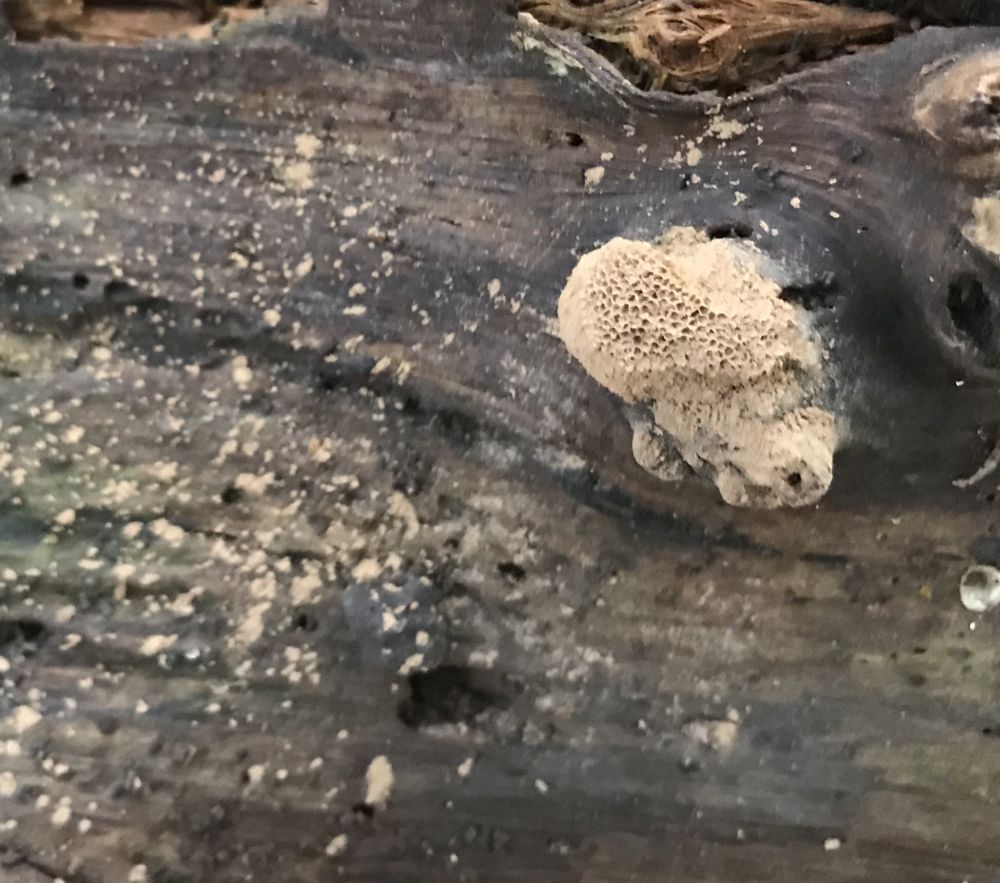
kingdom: Protozoa
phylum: Mycetozoa
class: Myxomycetes
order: Cribrariales
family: Tubiferaceae
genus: Reticularia
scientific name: Reticularia
